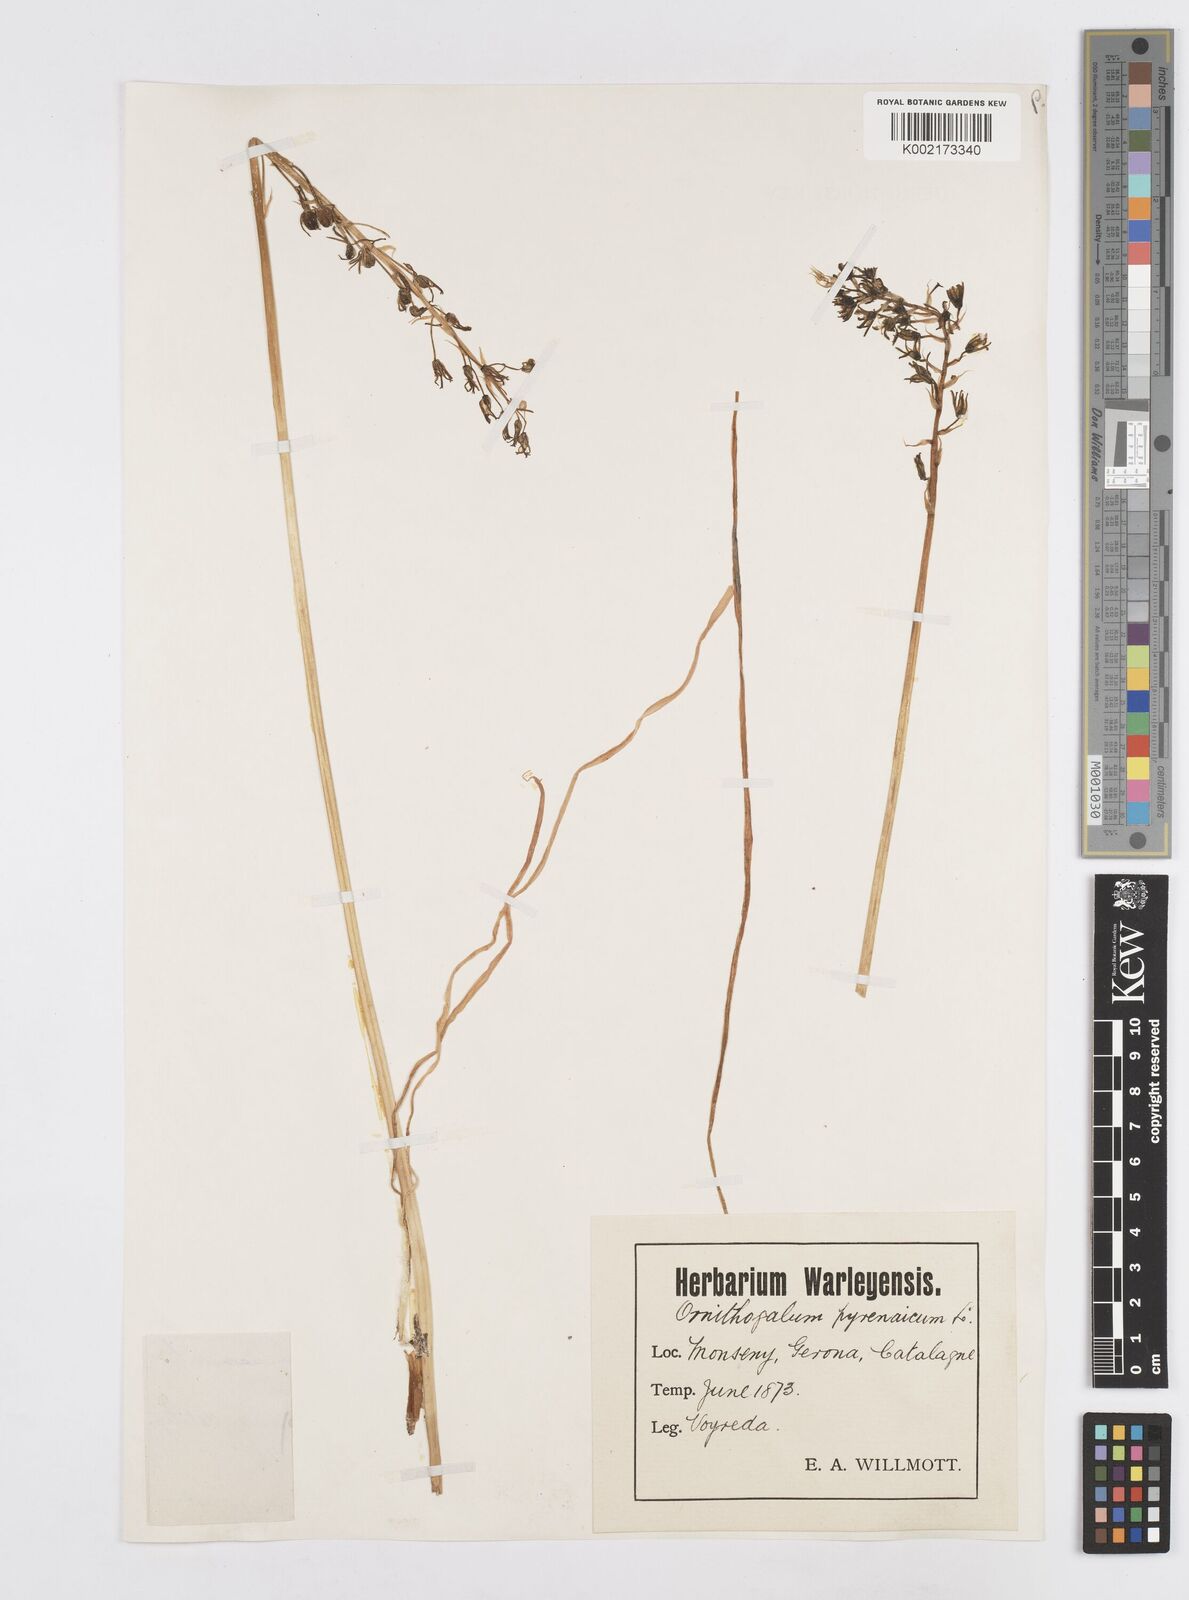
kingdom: Plantae
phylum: Tracheophyta
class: Liliopsida
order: Asparagales
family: Asparagaceae
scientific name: Asparagaceae
